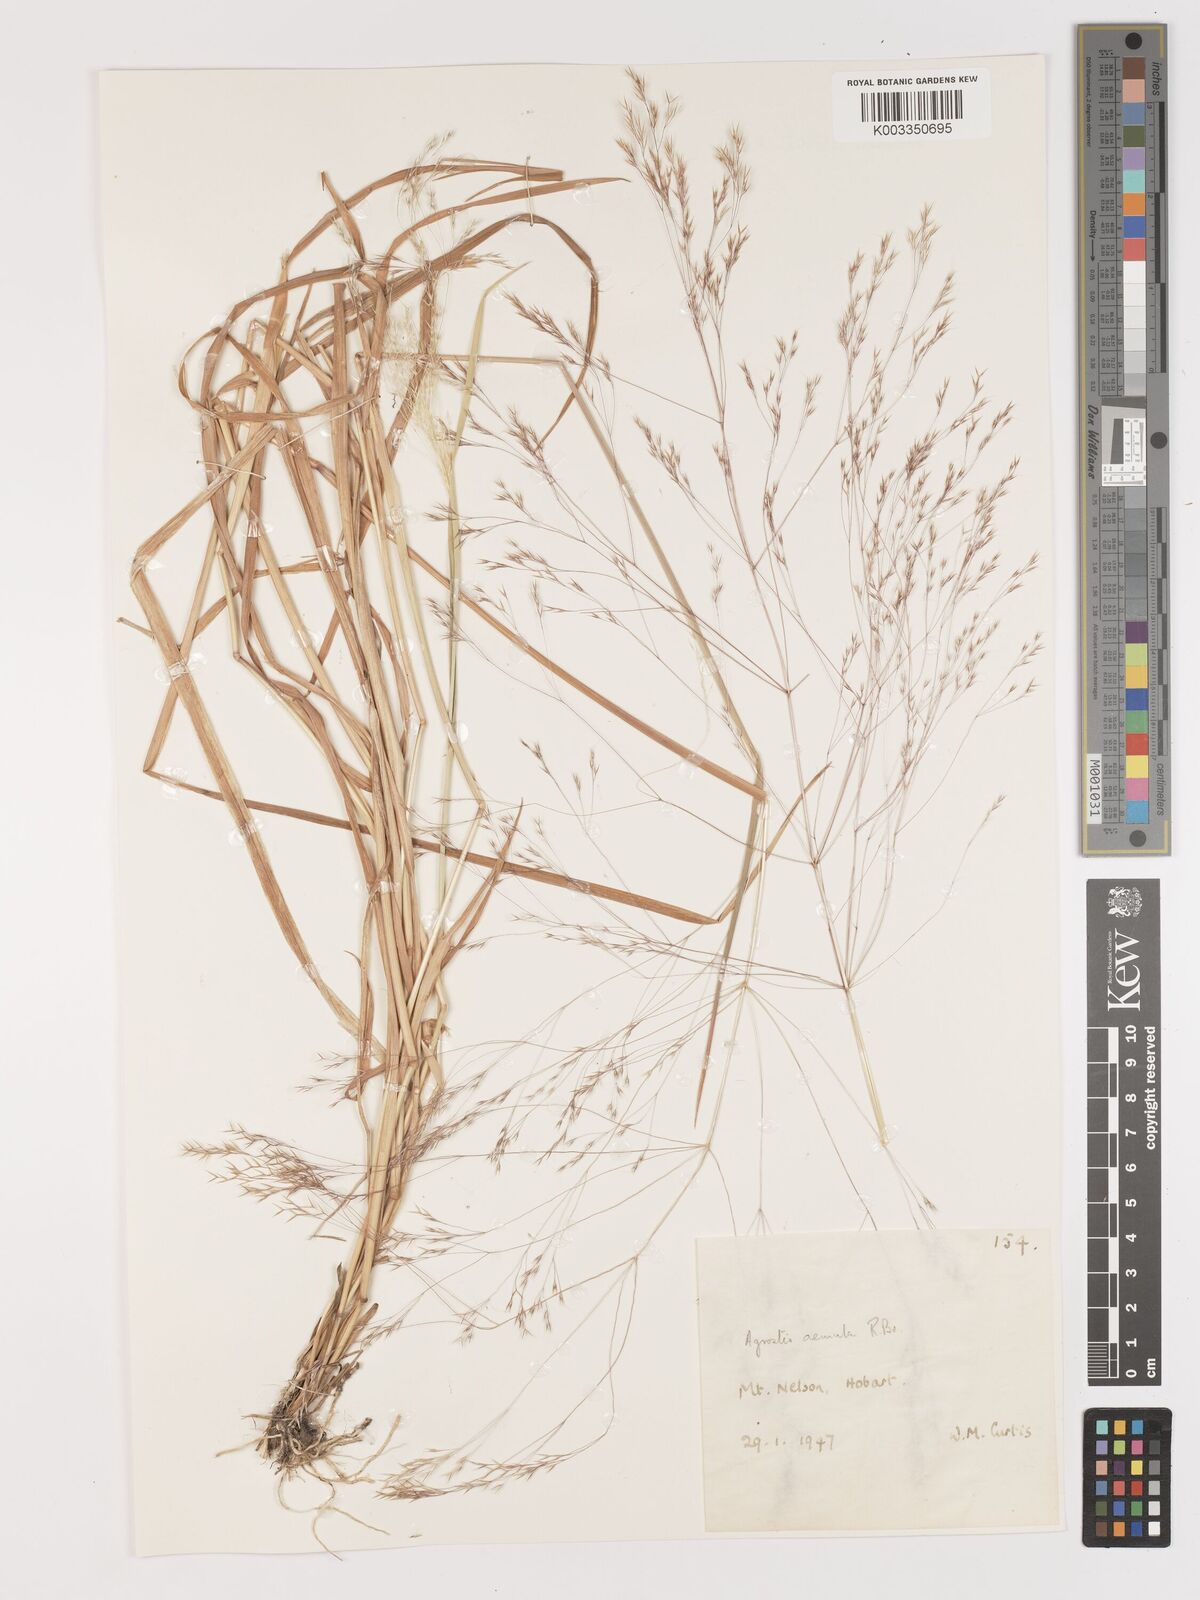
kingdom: Plantae
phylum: Tracheophyta
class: Liliopsida
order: Poales
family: Poaceae
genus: Lachnagrostis
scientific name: Lachnagrostis aemula
